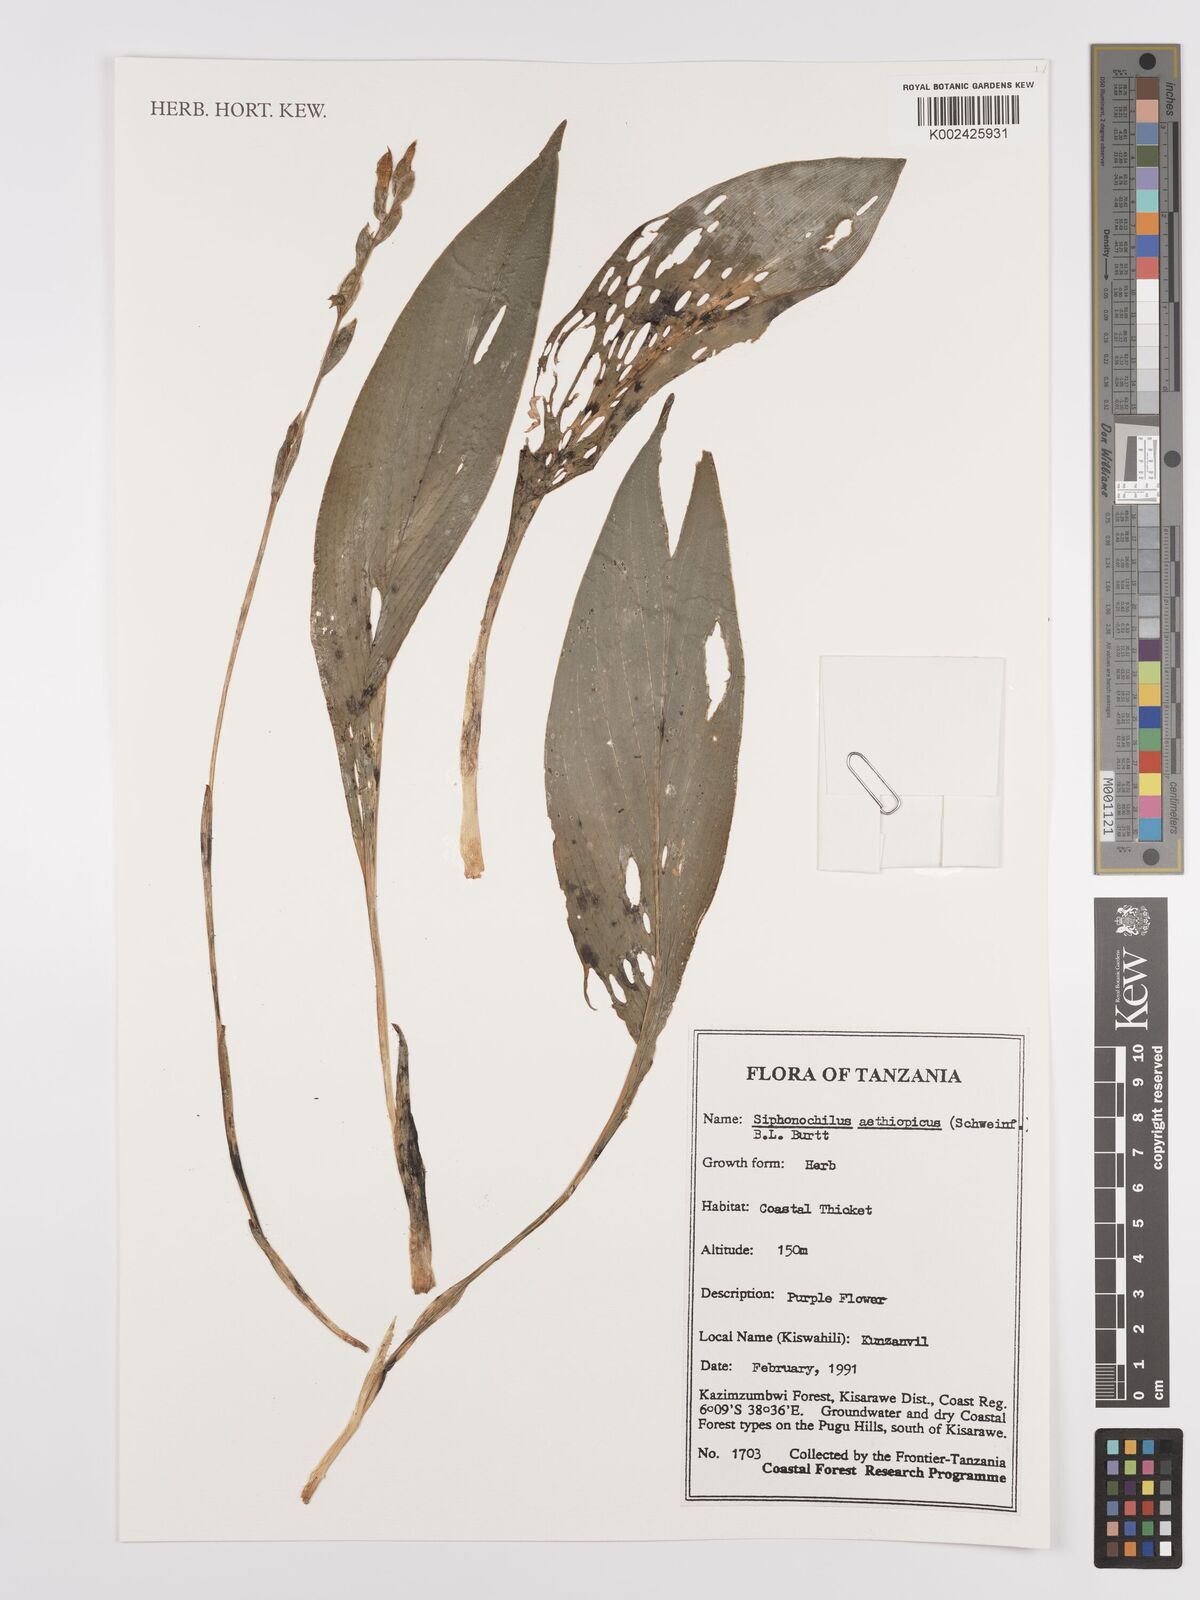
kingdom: Plantae
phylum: Tracheophyta
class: Liliopsida
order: Zingiberales
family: Zingiberaceae
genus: Siphonochilus
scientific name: Siphonochilus aethiopicus
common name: African-ginger
